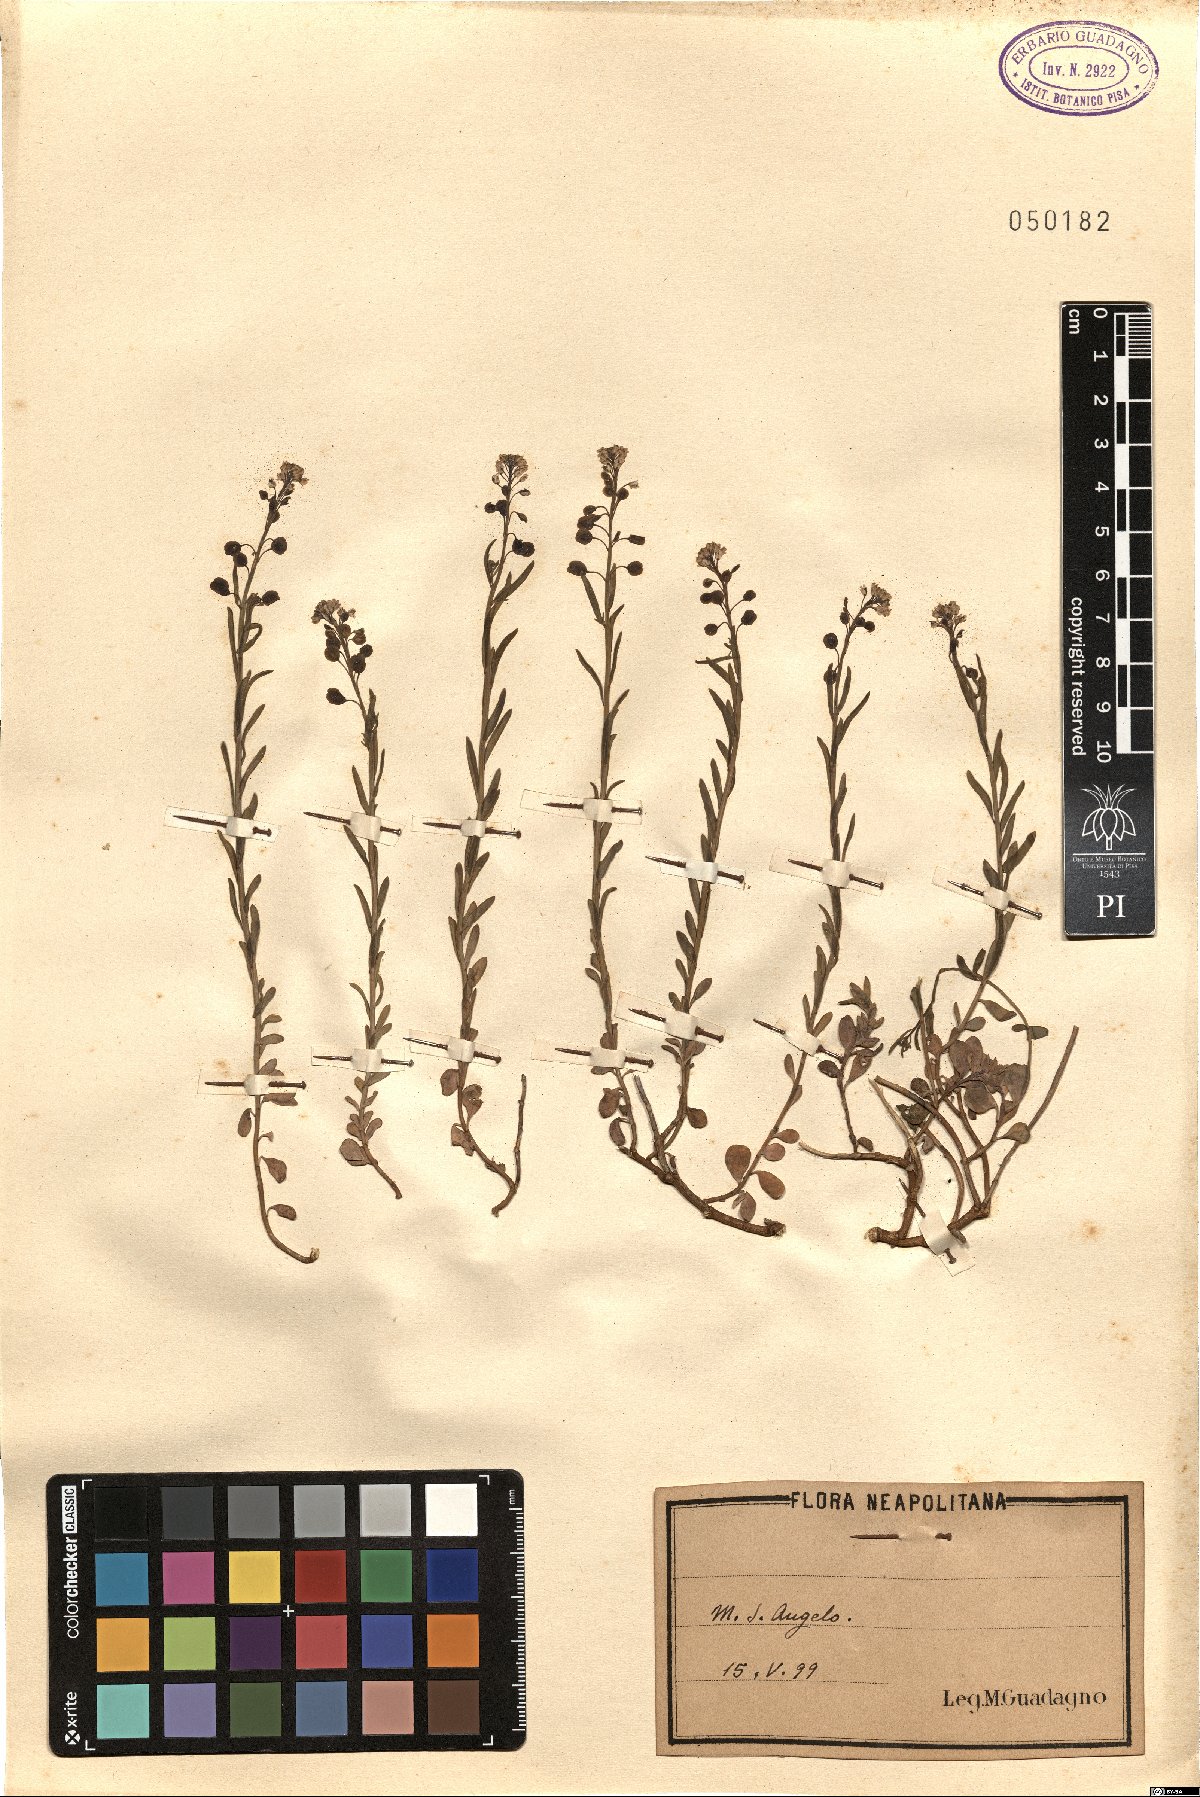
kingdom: Plantae
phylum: Tracheophyta
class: Magnoliopsida
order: Brassicales
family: Brassicaceae
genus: Aethionema
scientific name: Aethionema
